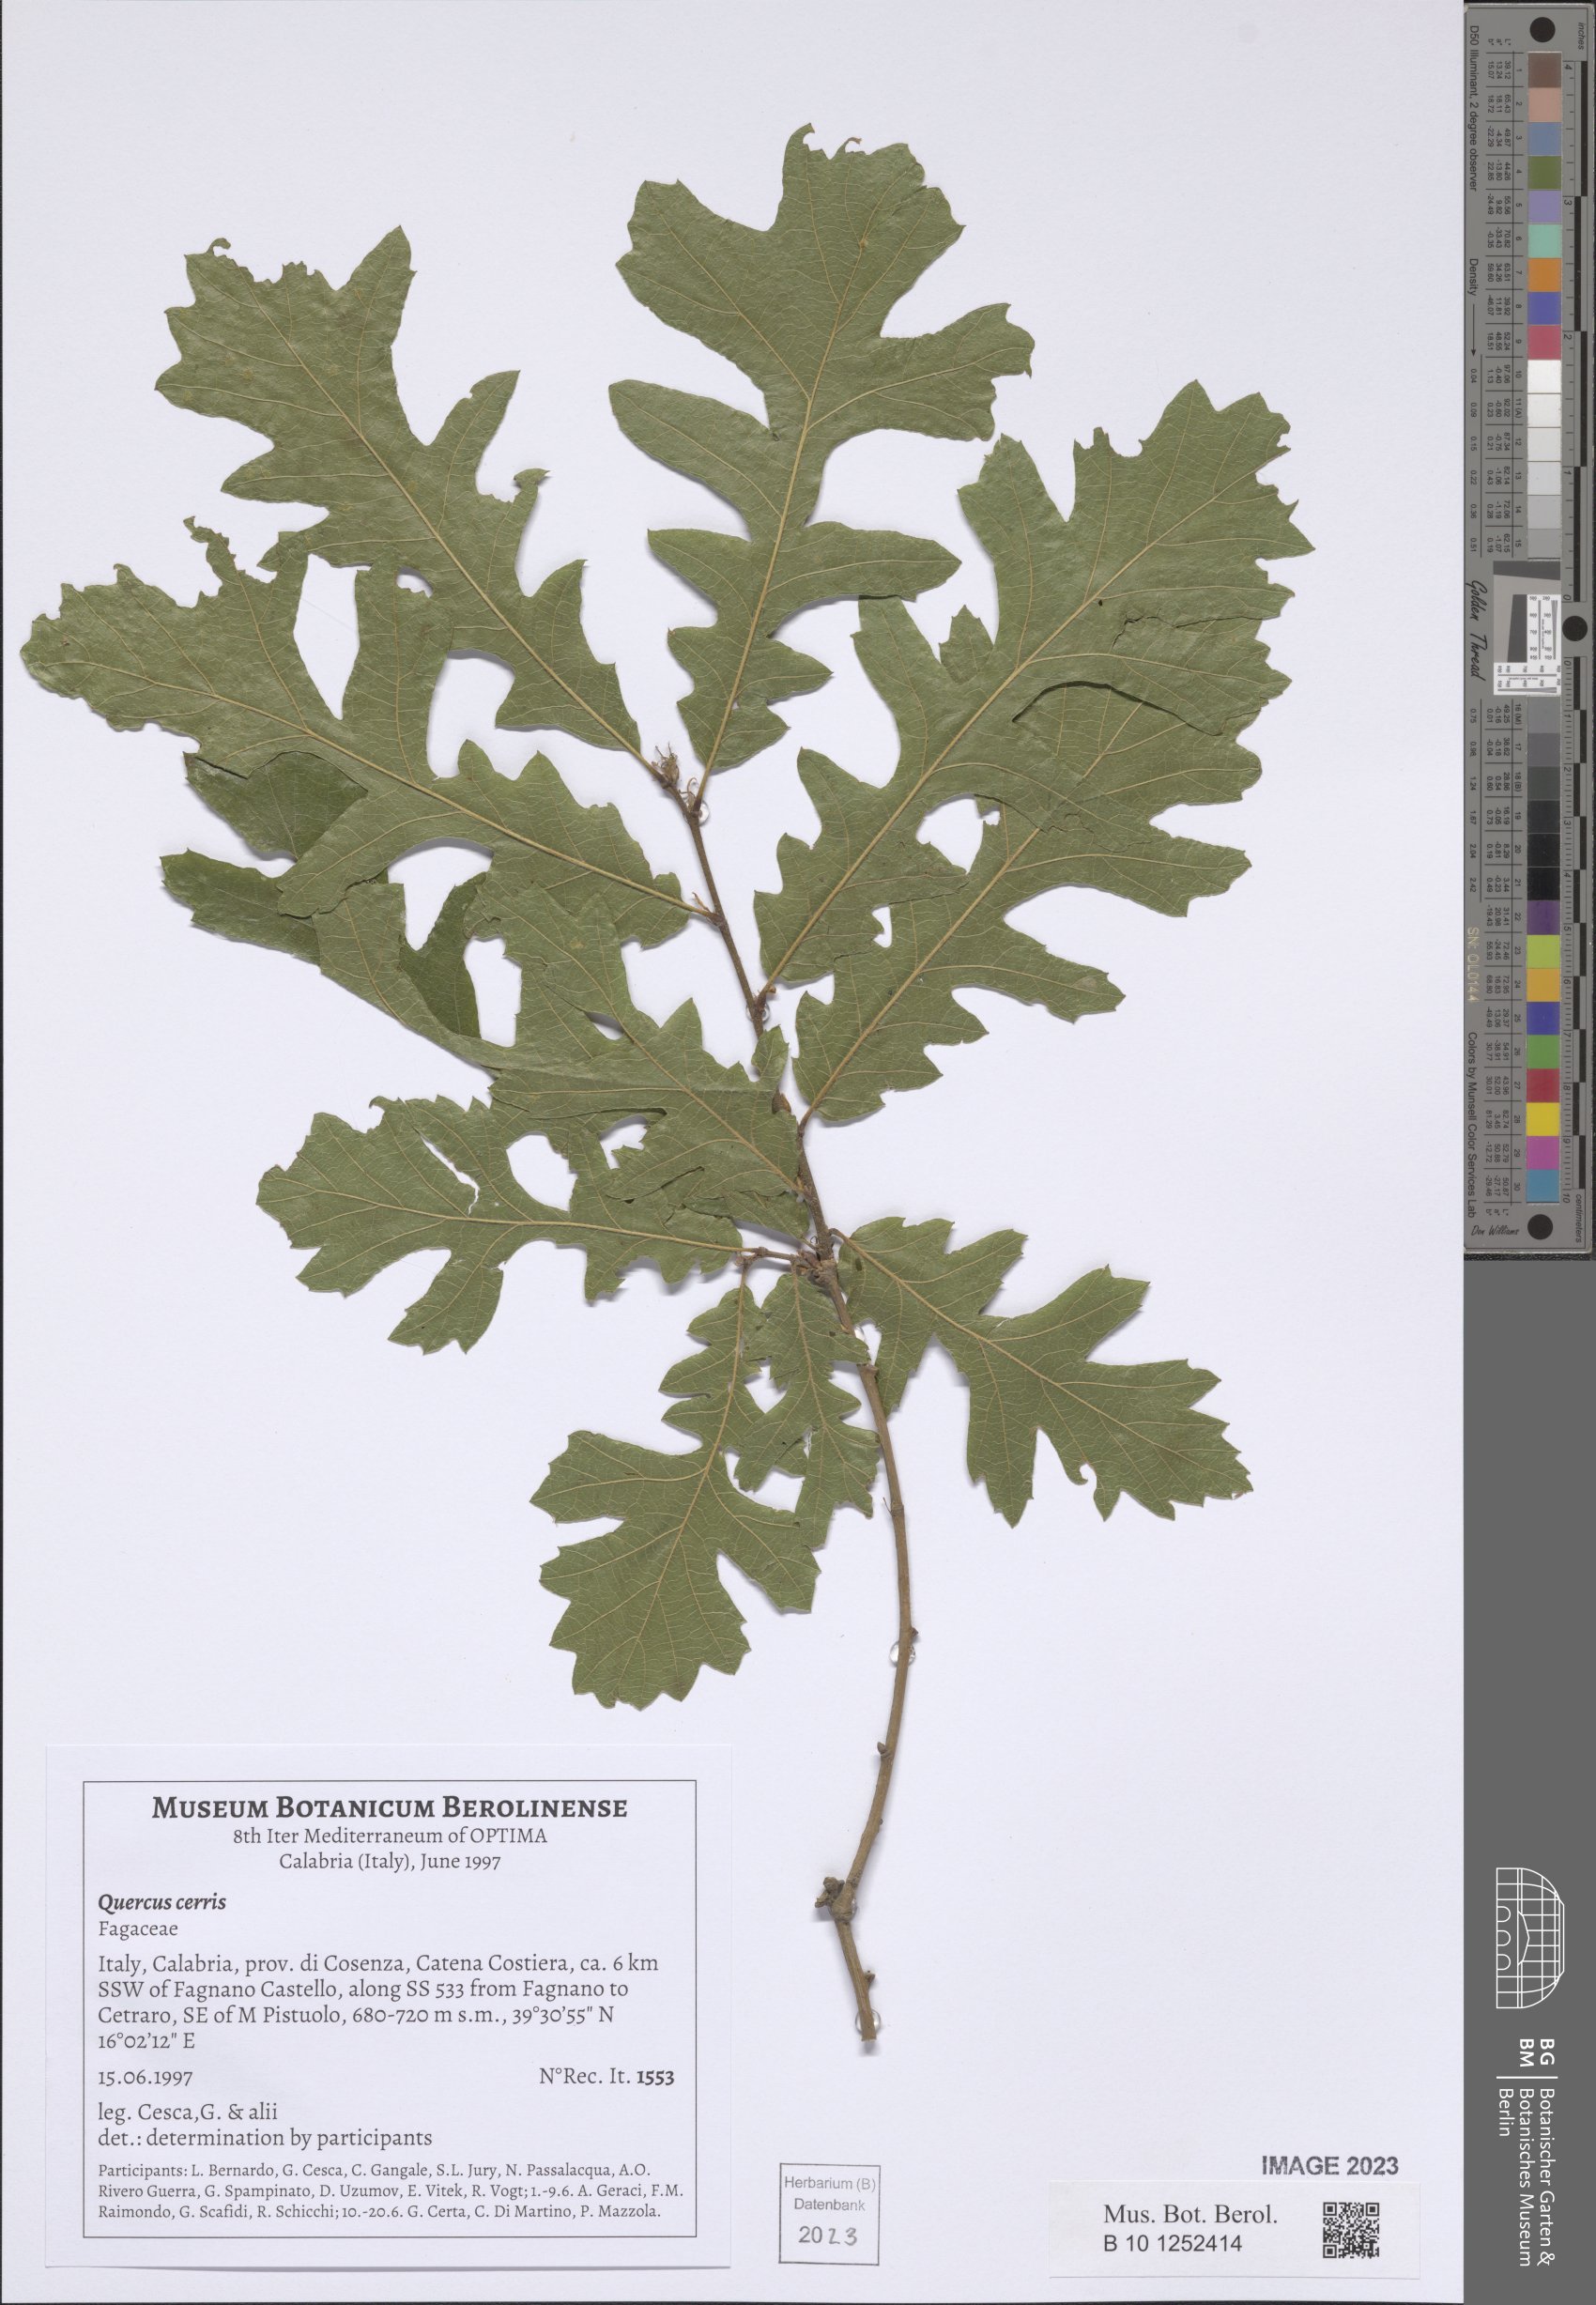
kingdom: Plantae
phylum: Tracheophyta
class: Magnoliopsida
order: Fagales
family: Fagaceae
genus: Quercus
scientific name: Quercus cerris
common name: Turkey oak
